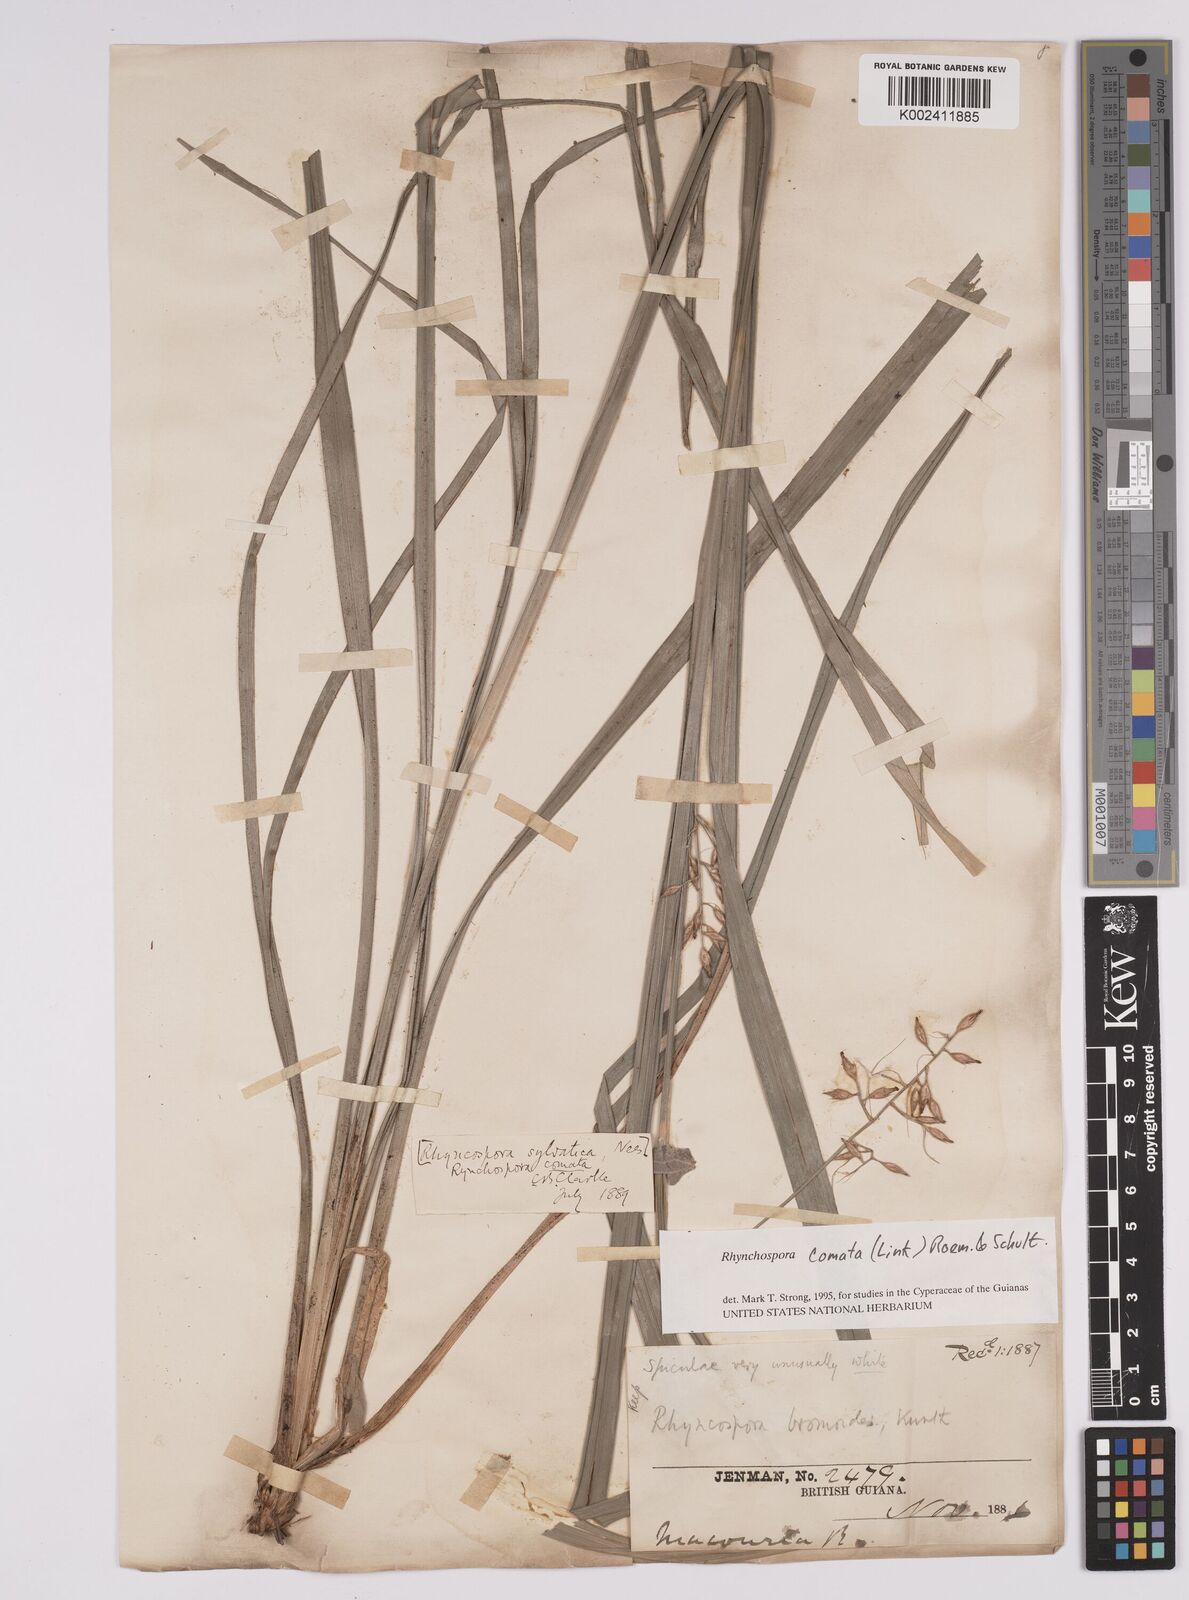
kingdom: Plantae
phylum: Tracheophyta
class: Liliopsida
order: Poales
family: Cyperaceae
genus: Rhynchospora
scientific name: Rhynchospora comata
